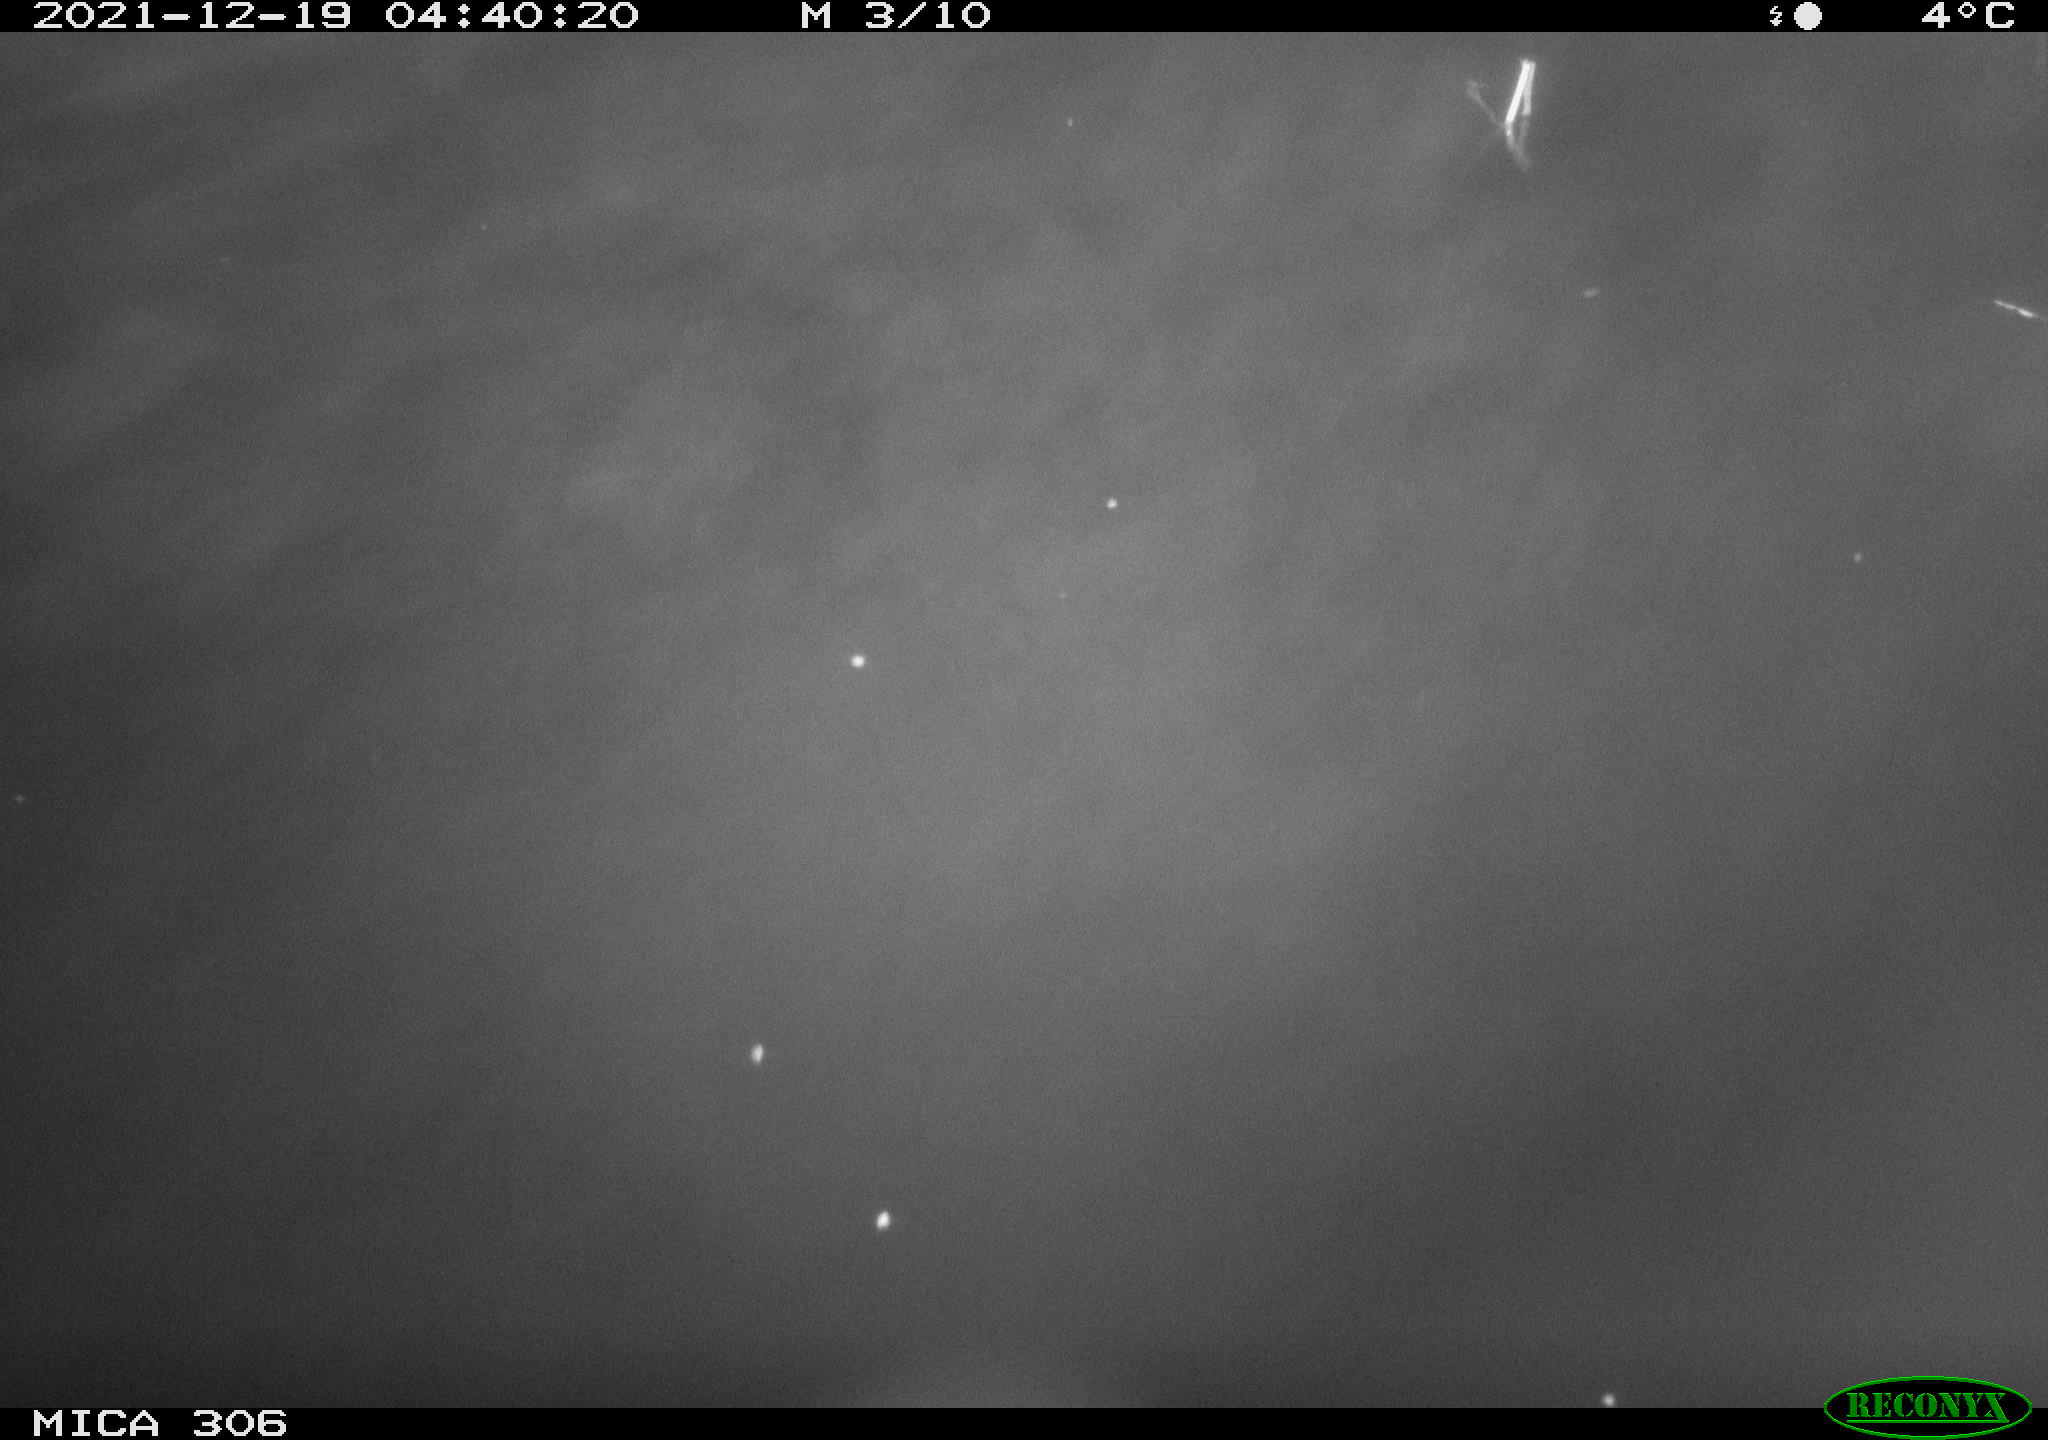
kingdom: Animalia
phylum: Chordata
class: Mammalia
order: Rodentia
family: Cricetidae
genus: Ondatra
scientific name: Ondatra zibethicus
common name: Muskrat
